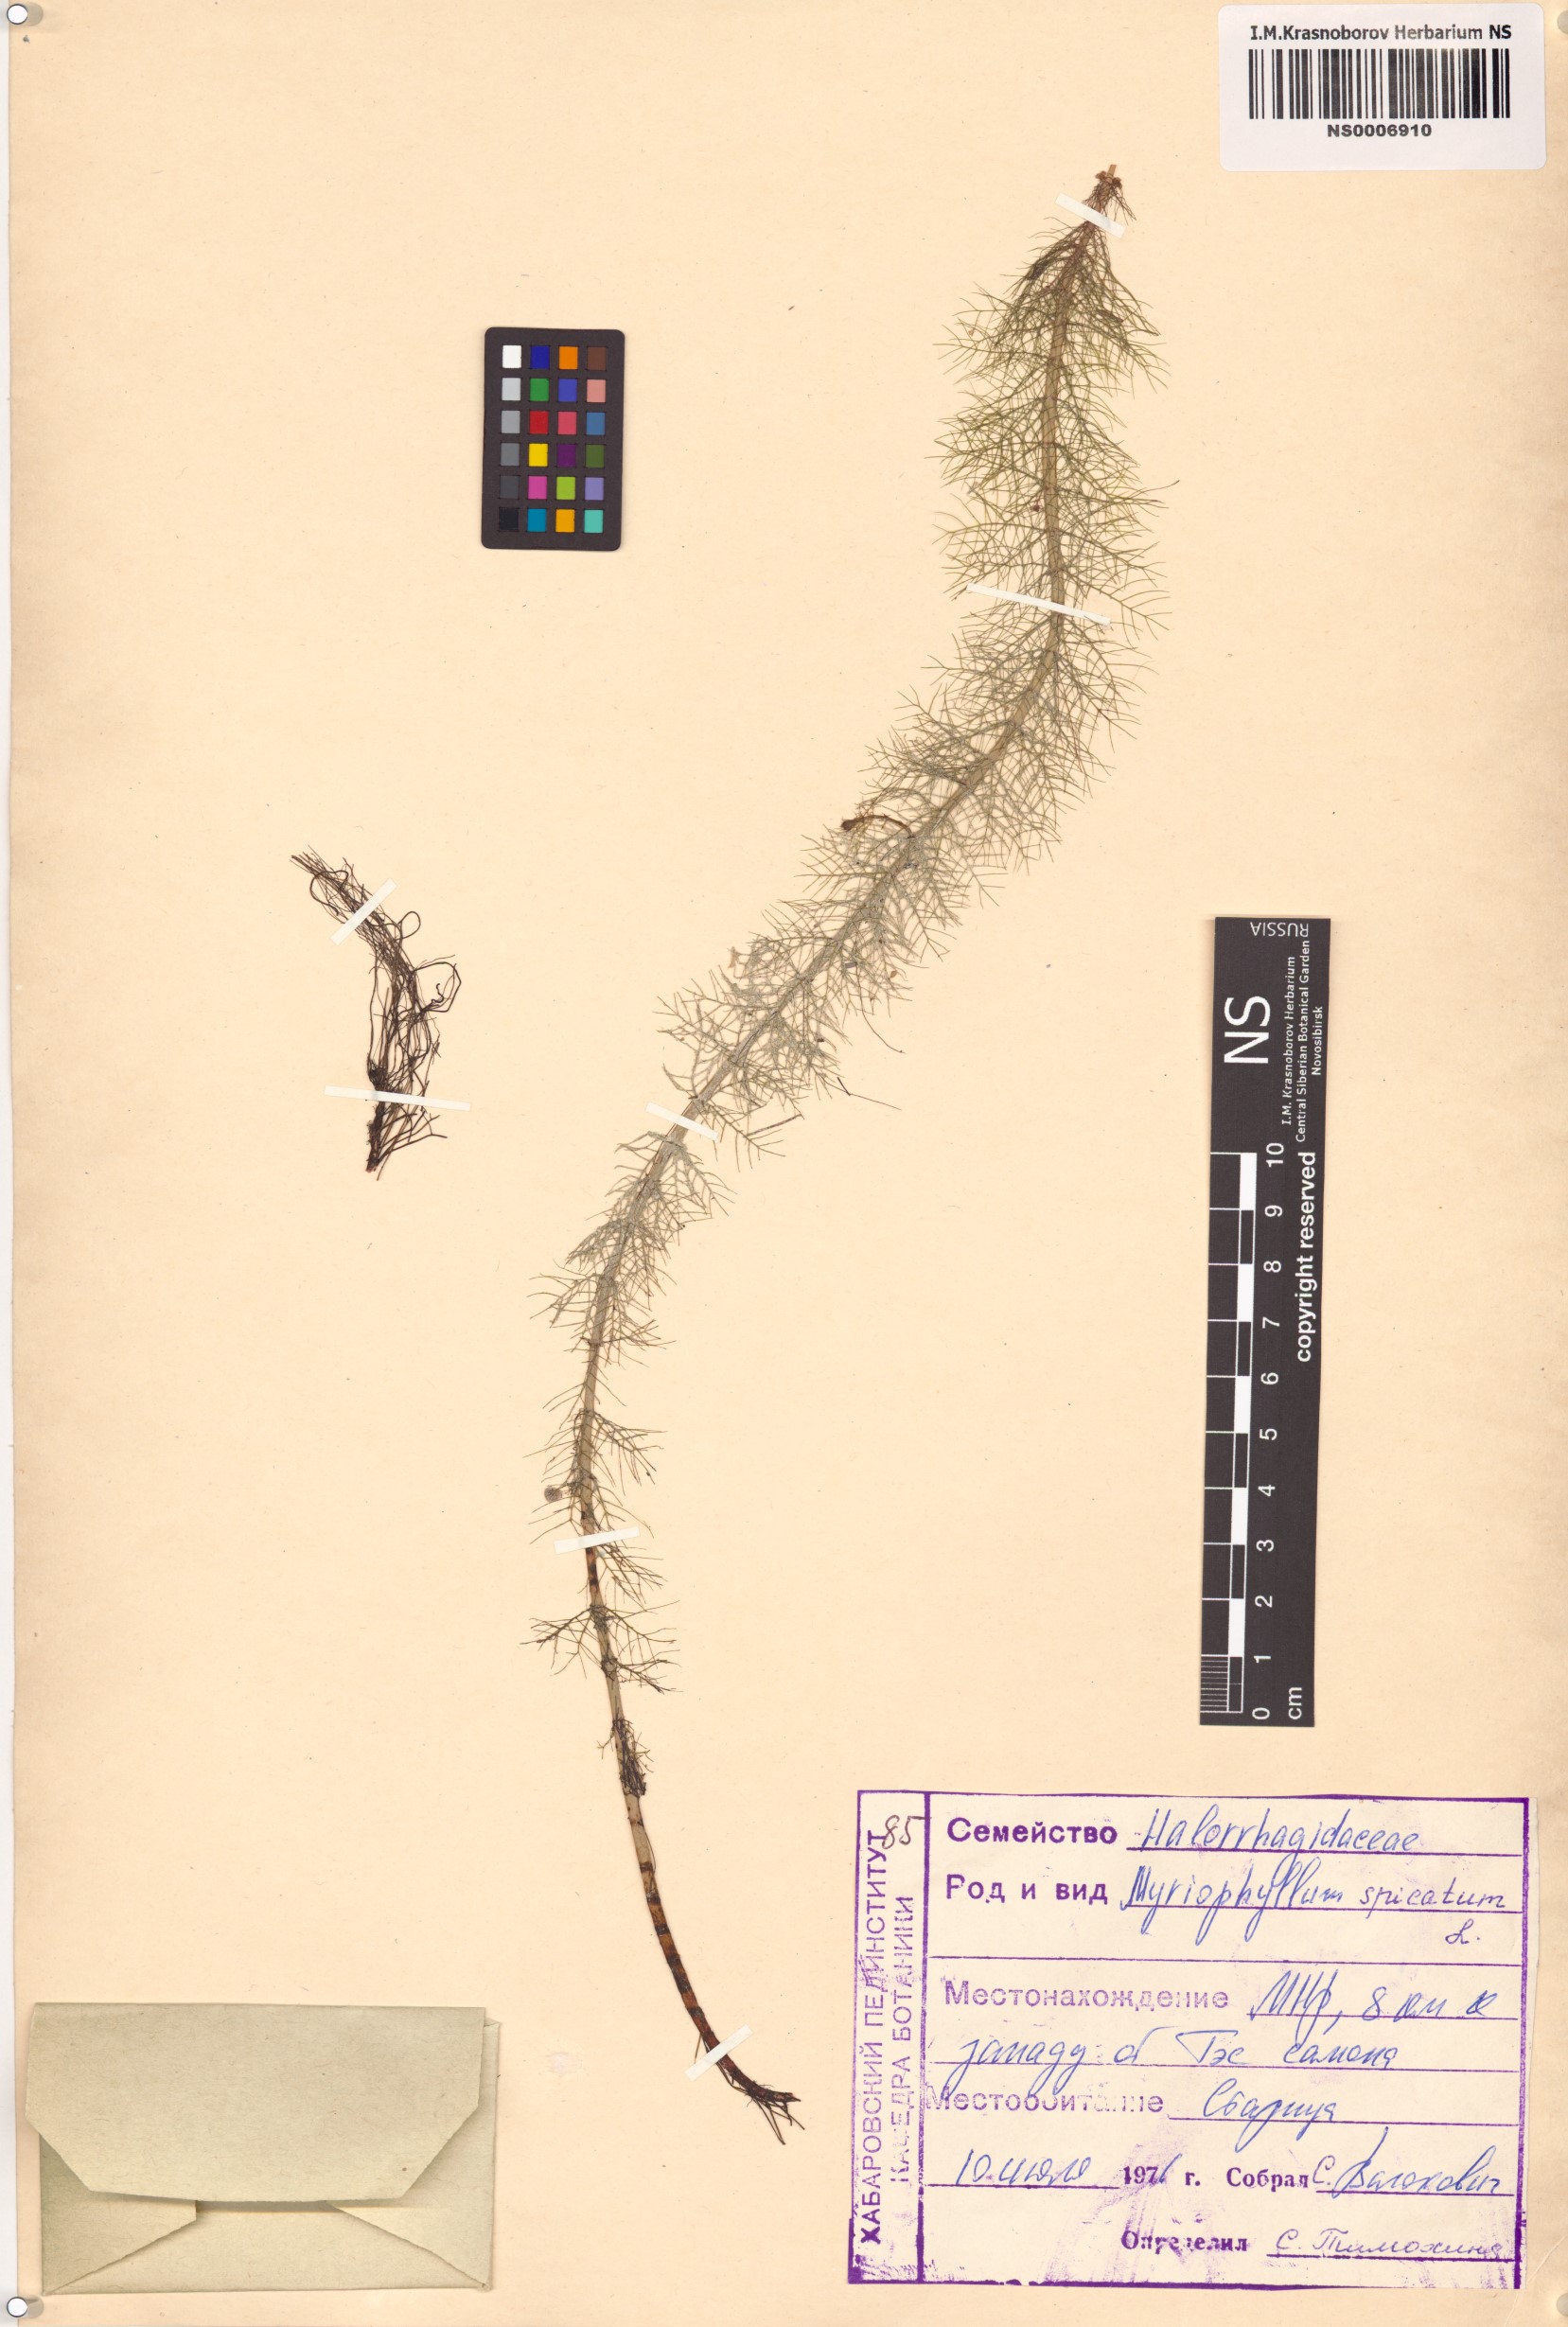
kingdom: Plantae
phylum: Tracheophyta
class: Magnoliopsida
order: Saxifragales
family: Haloragaceae
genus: Myriophyllum
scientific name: Myriophyllum spicatum
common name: Spiked water-milfoil
